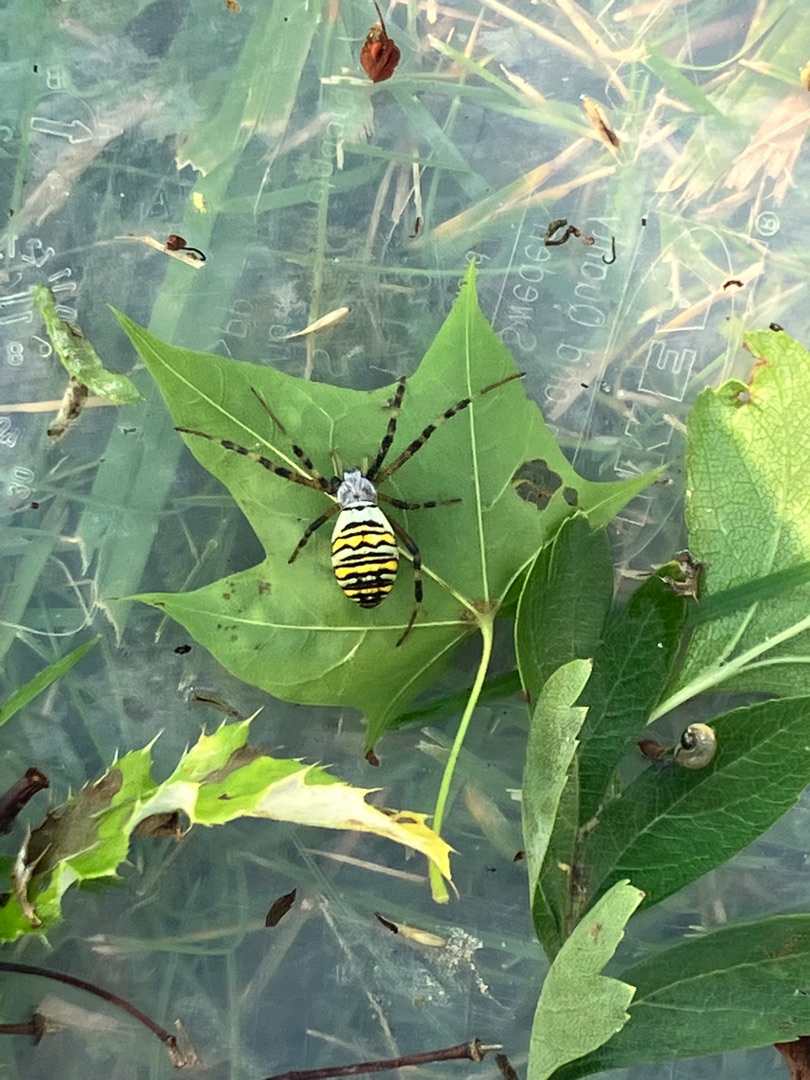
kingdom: Animalia
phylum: Arthropoda
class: Arachnida
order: Araneae
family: Araneidae
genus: Argiope
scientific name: Argiope bruennichi
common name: Hvepseedderkop
